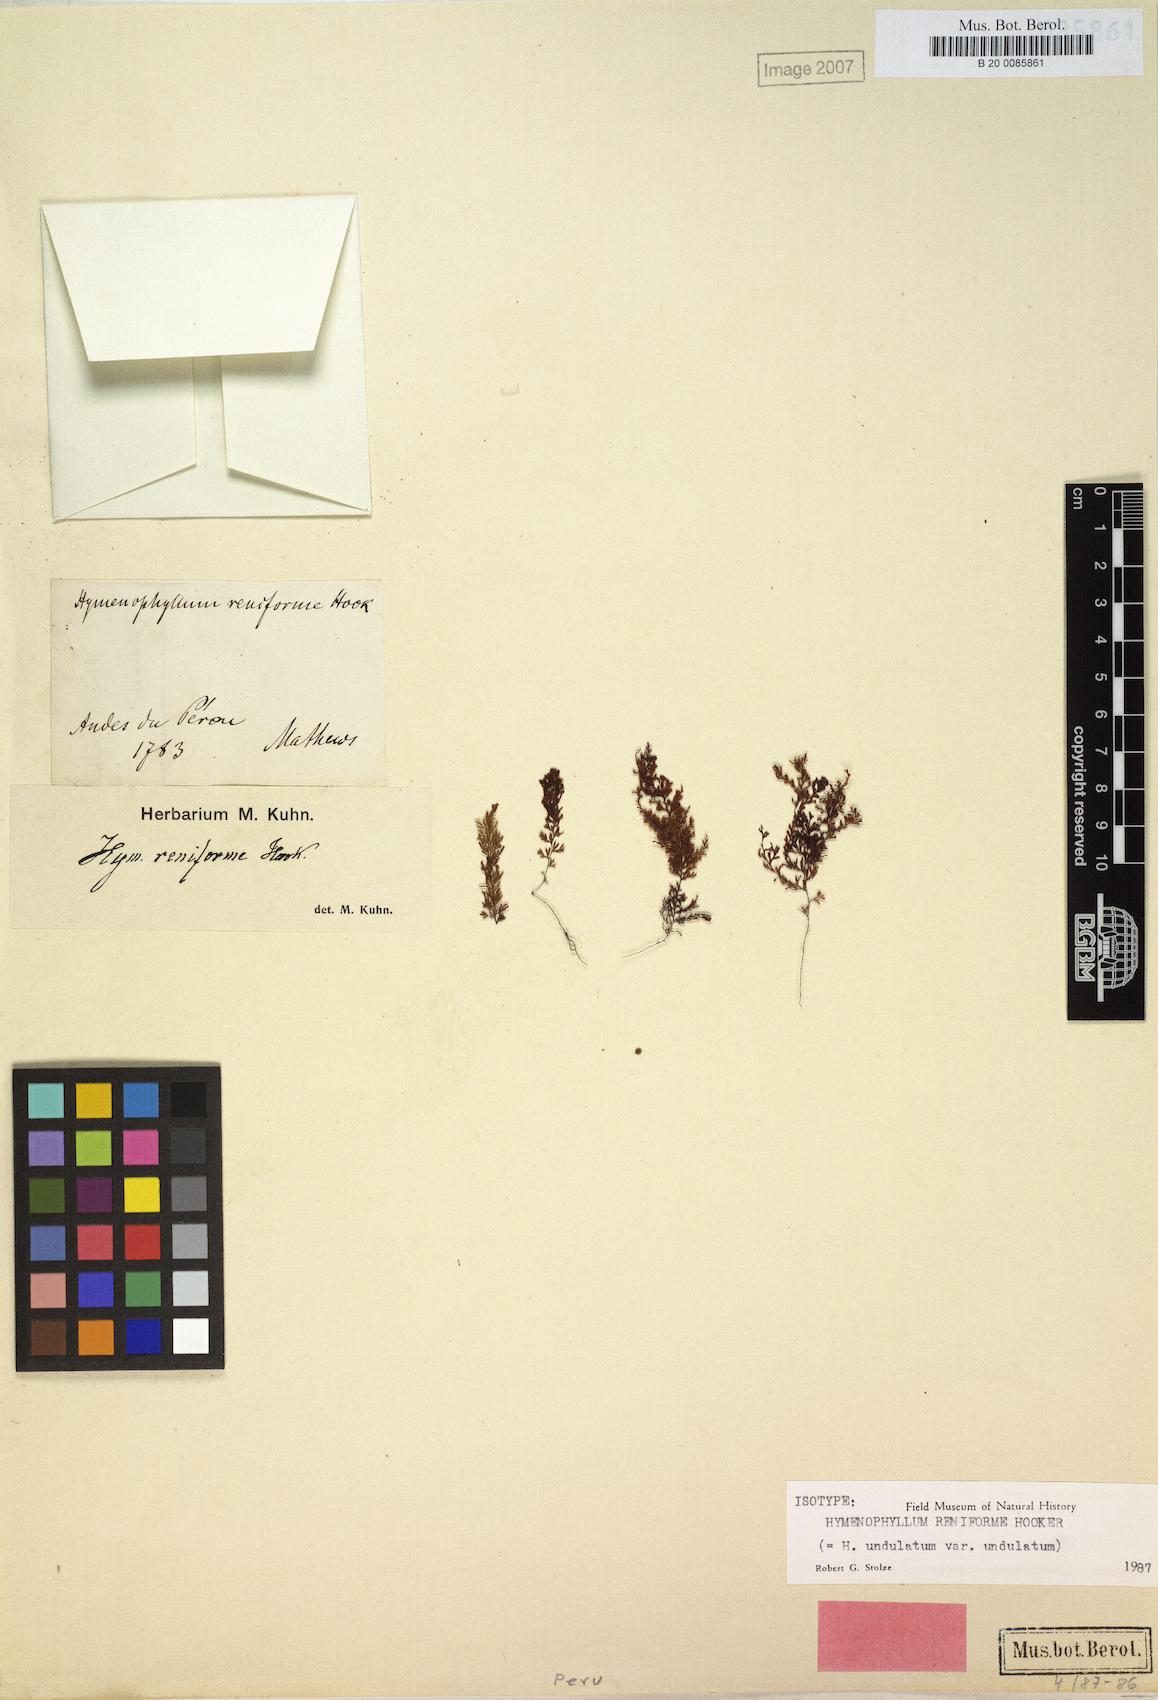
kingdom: Plantae
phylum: Tracheophyta
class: Polypodiopsida
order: Hymenophyllales
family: Hymenophyllaceae
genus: Hymenophyllum
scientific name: Hymenophyllum undulatum
